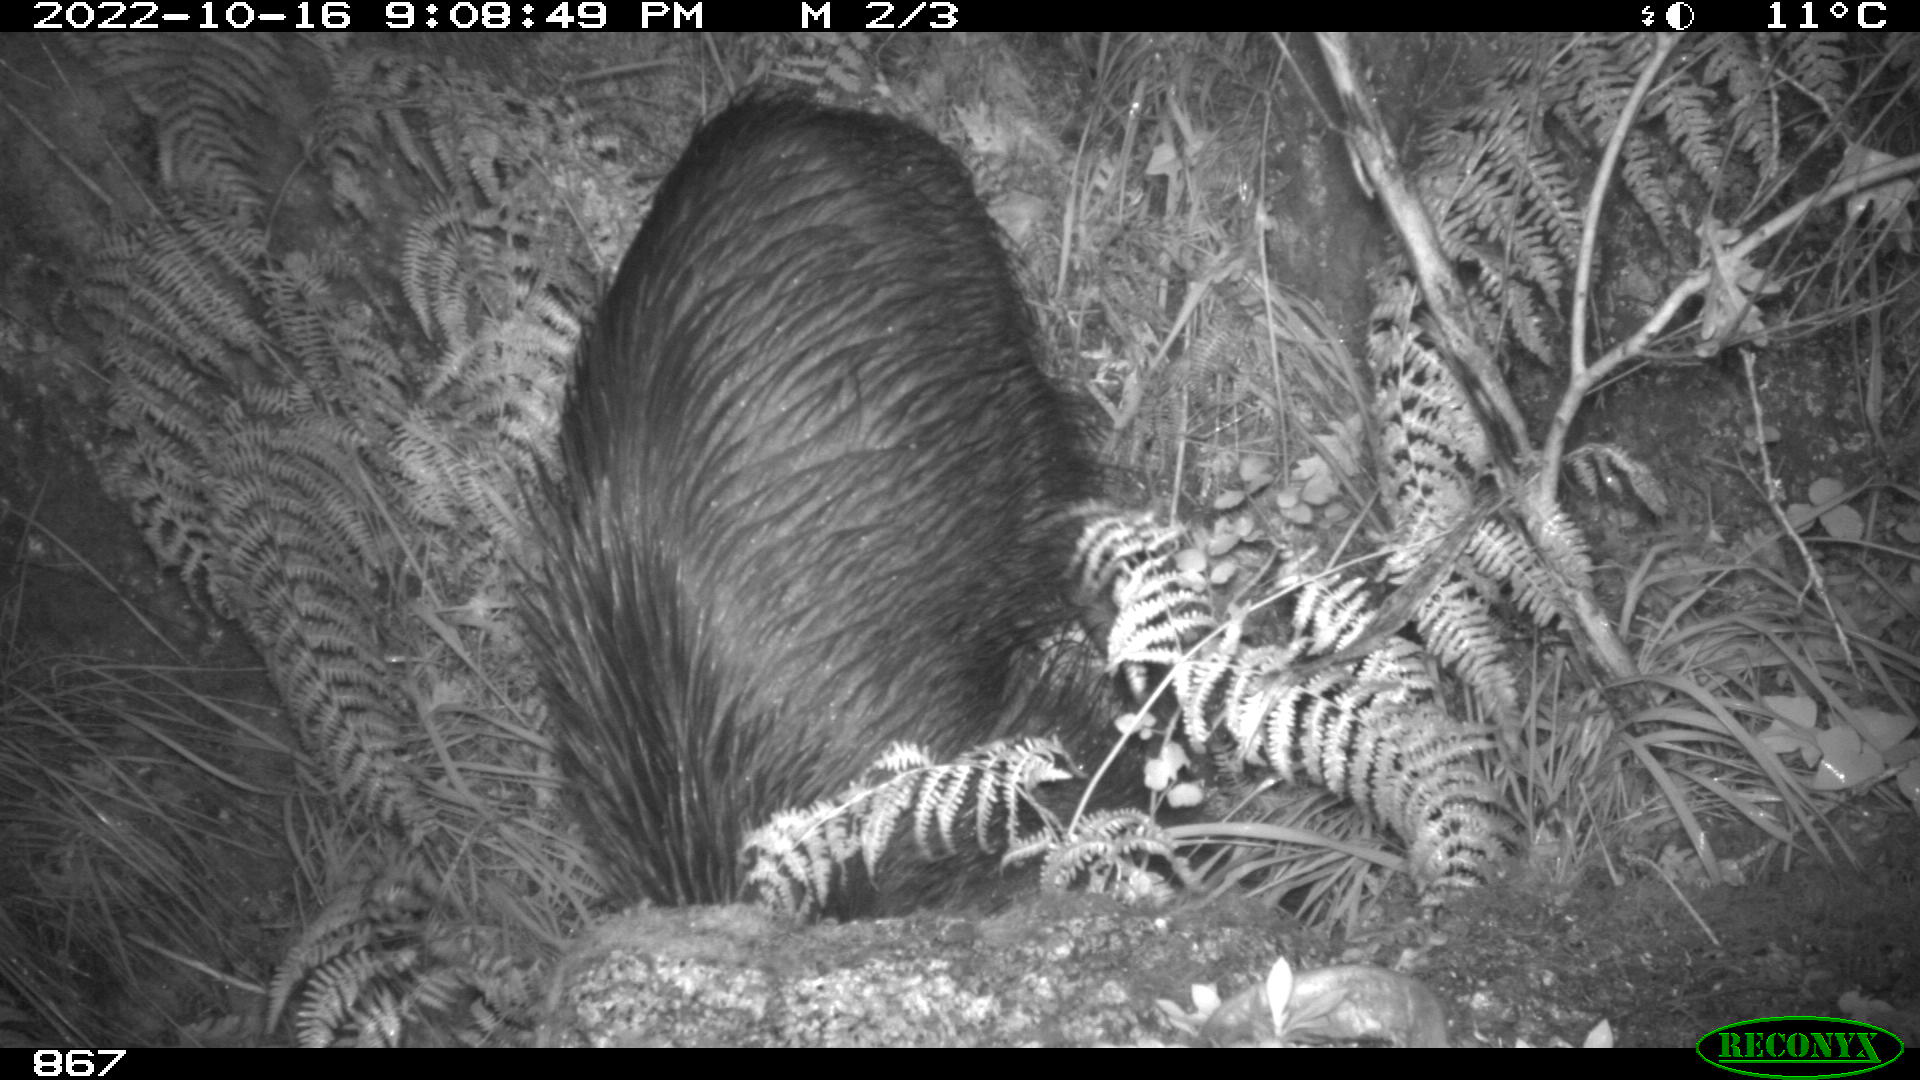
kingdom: Animalia
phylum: Chordata
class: Mammalia
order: Artiodactyla
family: Suidae
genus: Sus
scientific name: Sus scrofa
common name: Wild boar
